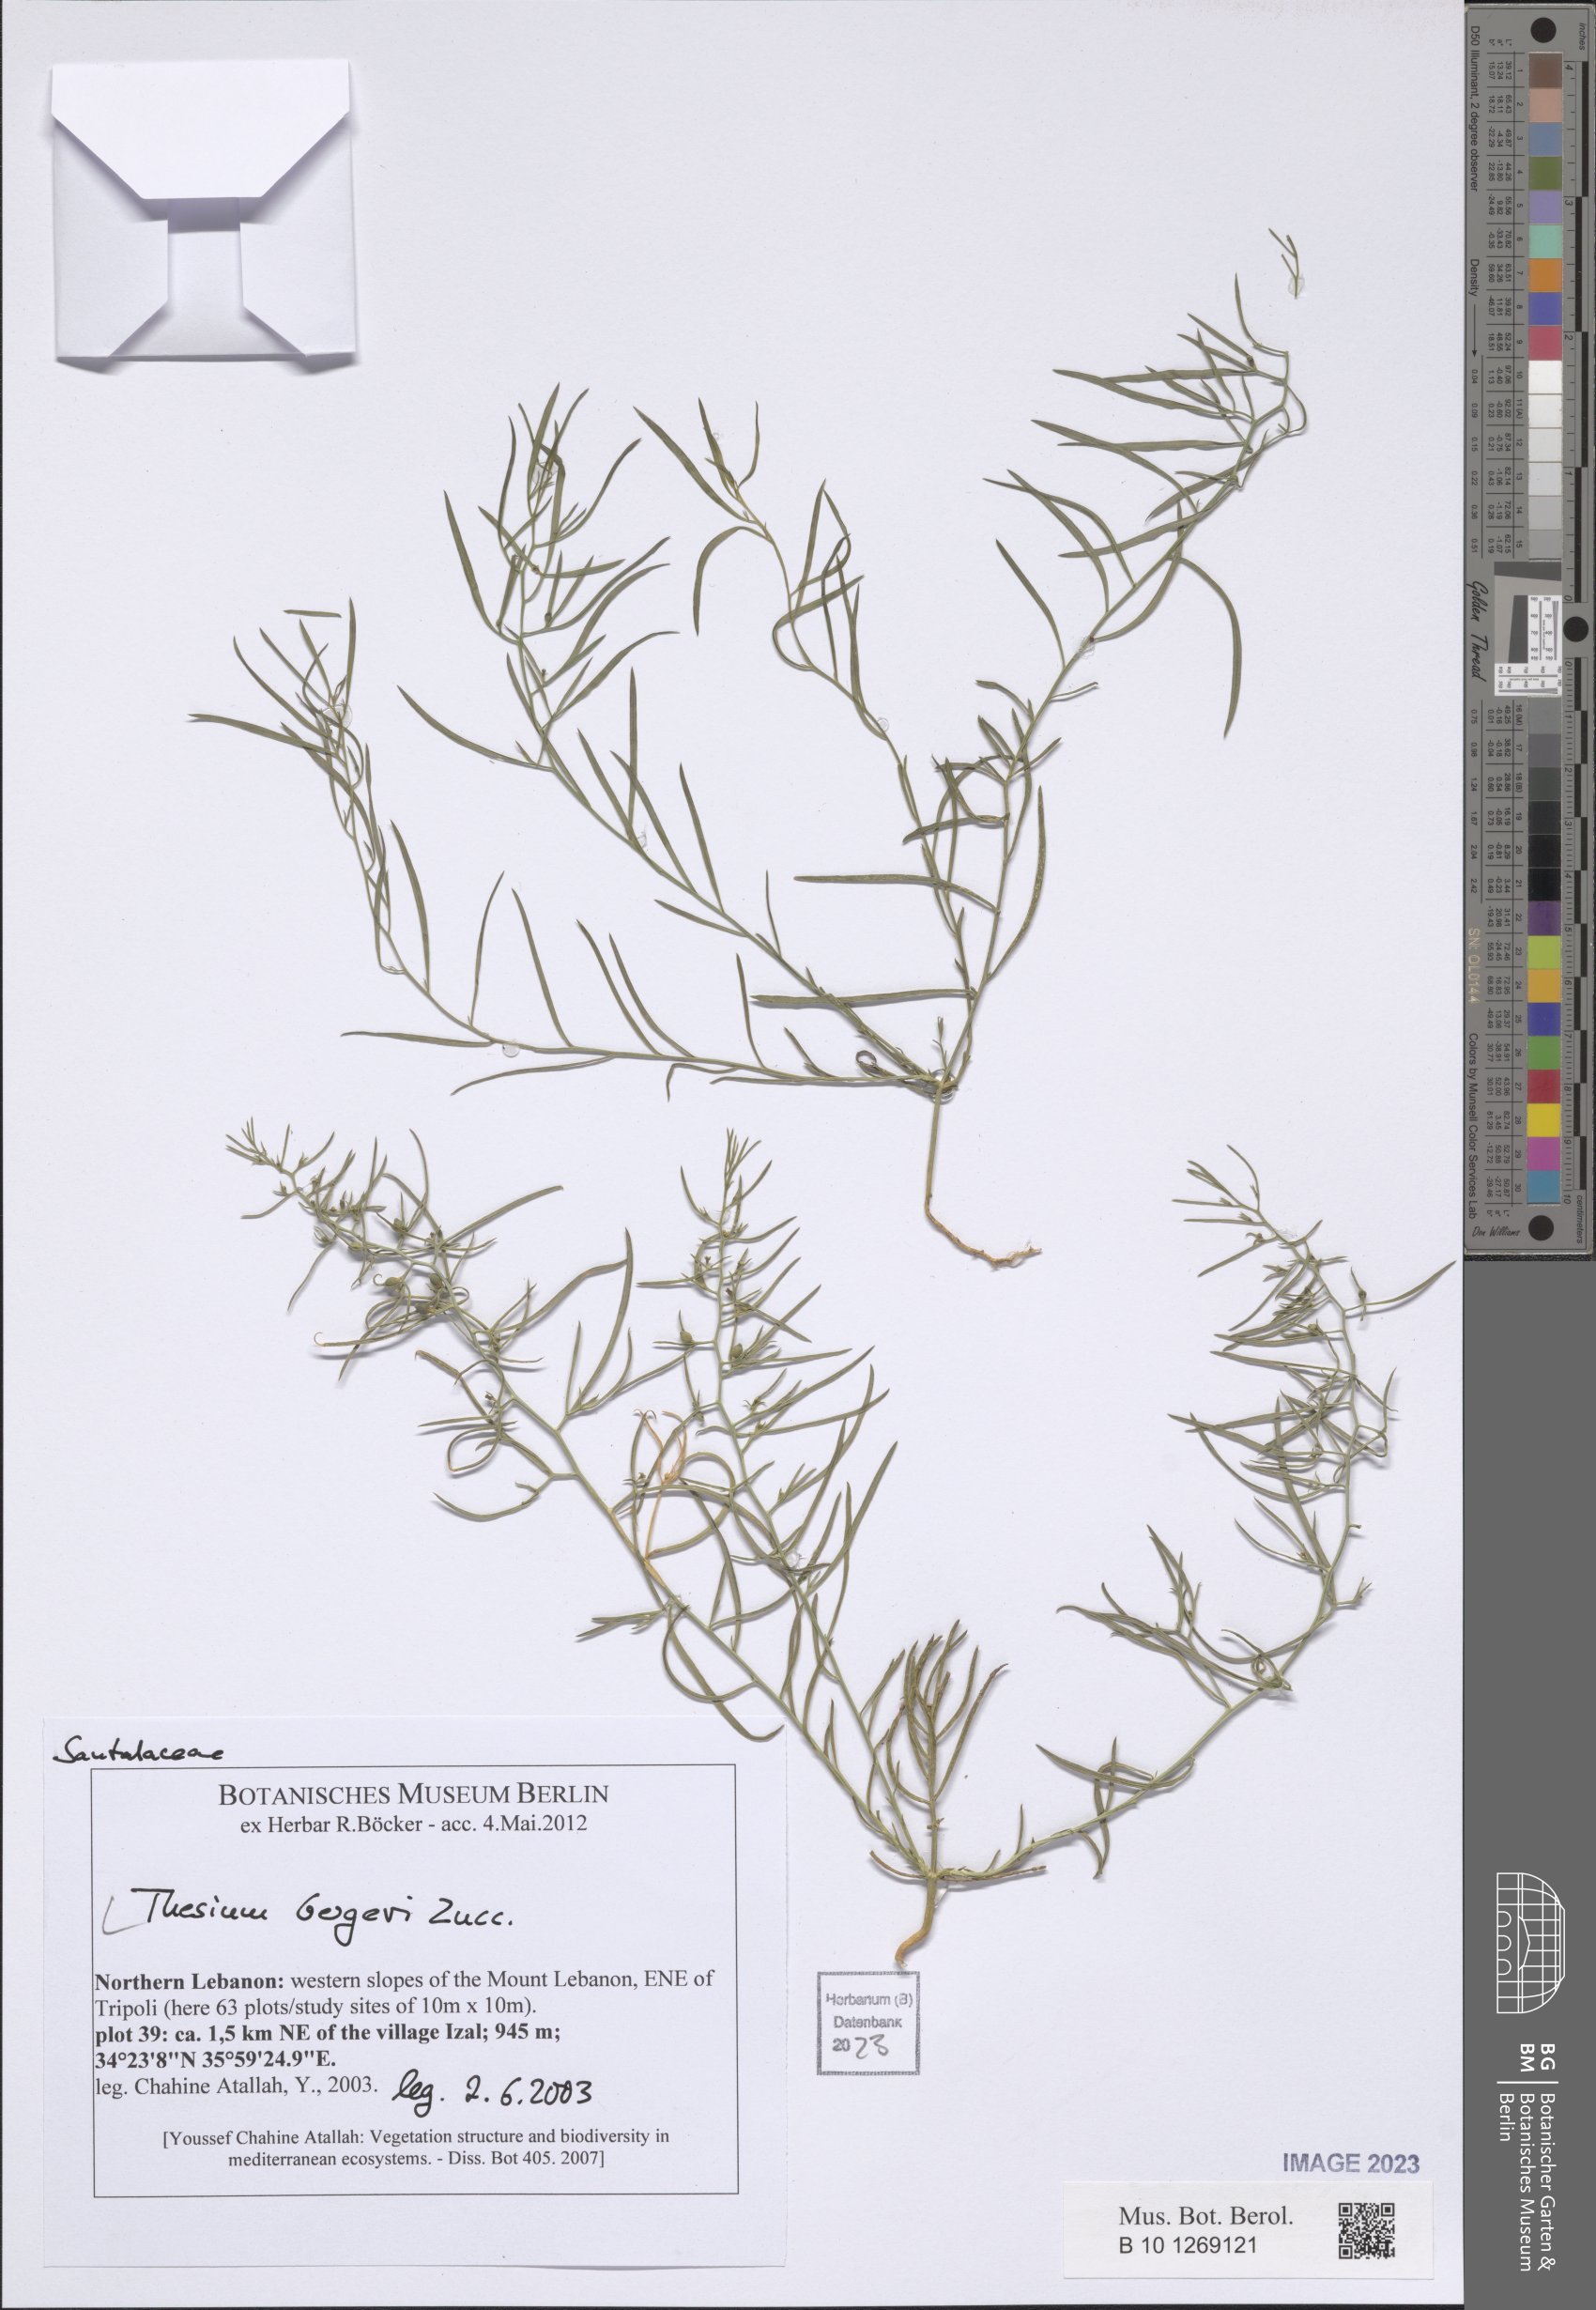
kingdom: Plantae
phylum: Tracheophyta
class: Magnoliopsida
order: Santalales
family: Thesiaceae
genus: Thesium
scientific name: Thesium bergeri
